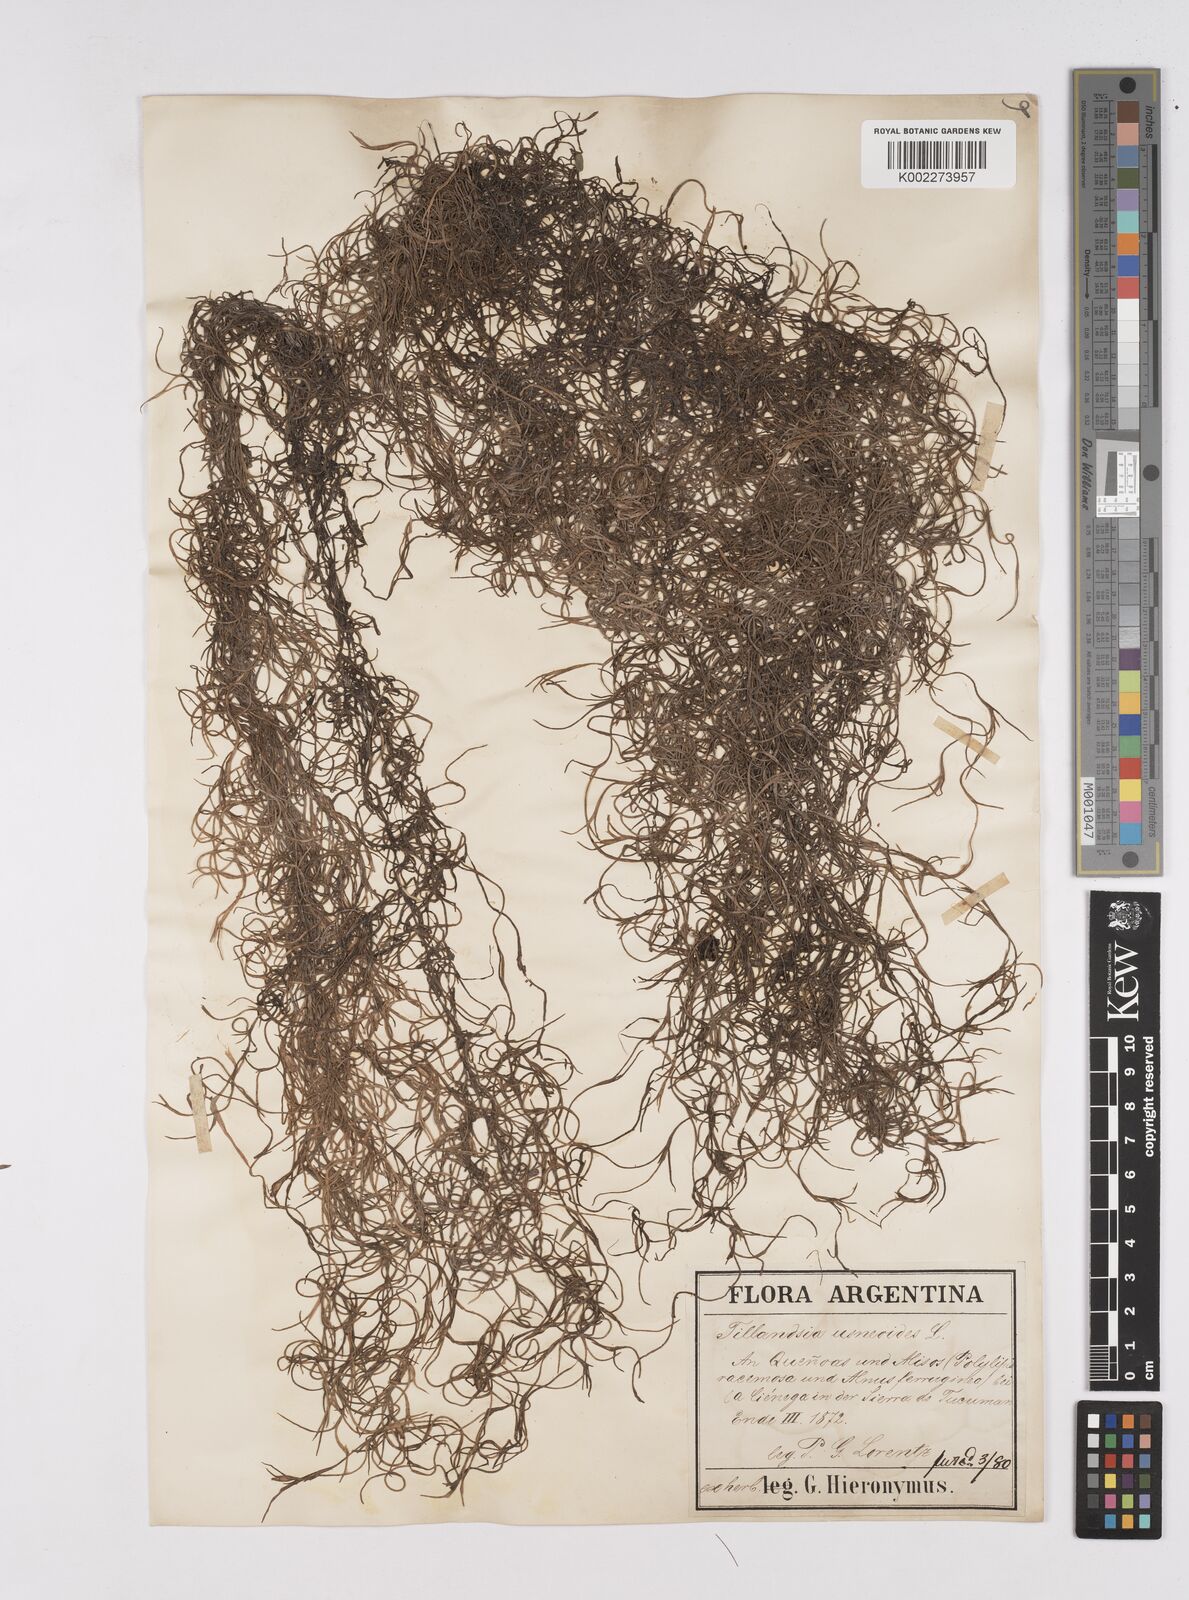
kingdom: Plantae
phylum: Tracheophyta
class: Liliopsida
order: Poales
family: Bromeliaceae
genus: Tillandsia
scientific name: Tillandsia usneoides
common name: Spanish moss
